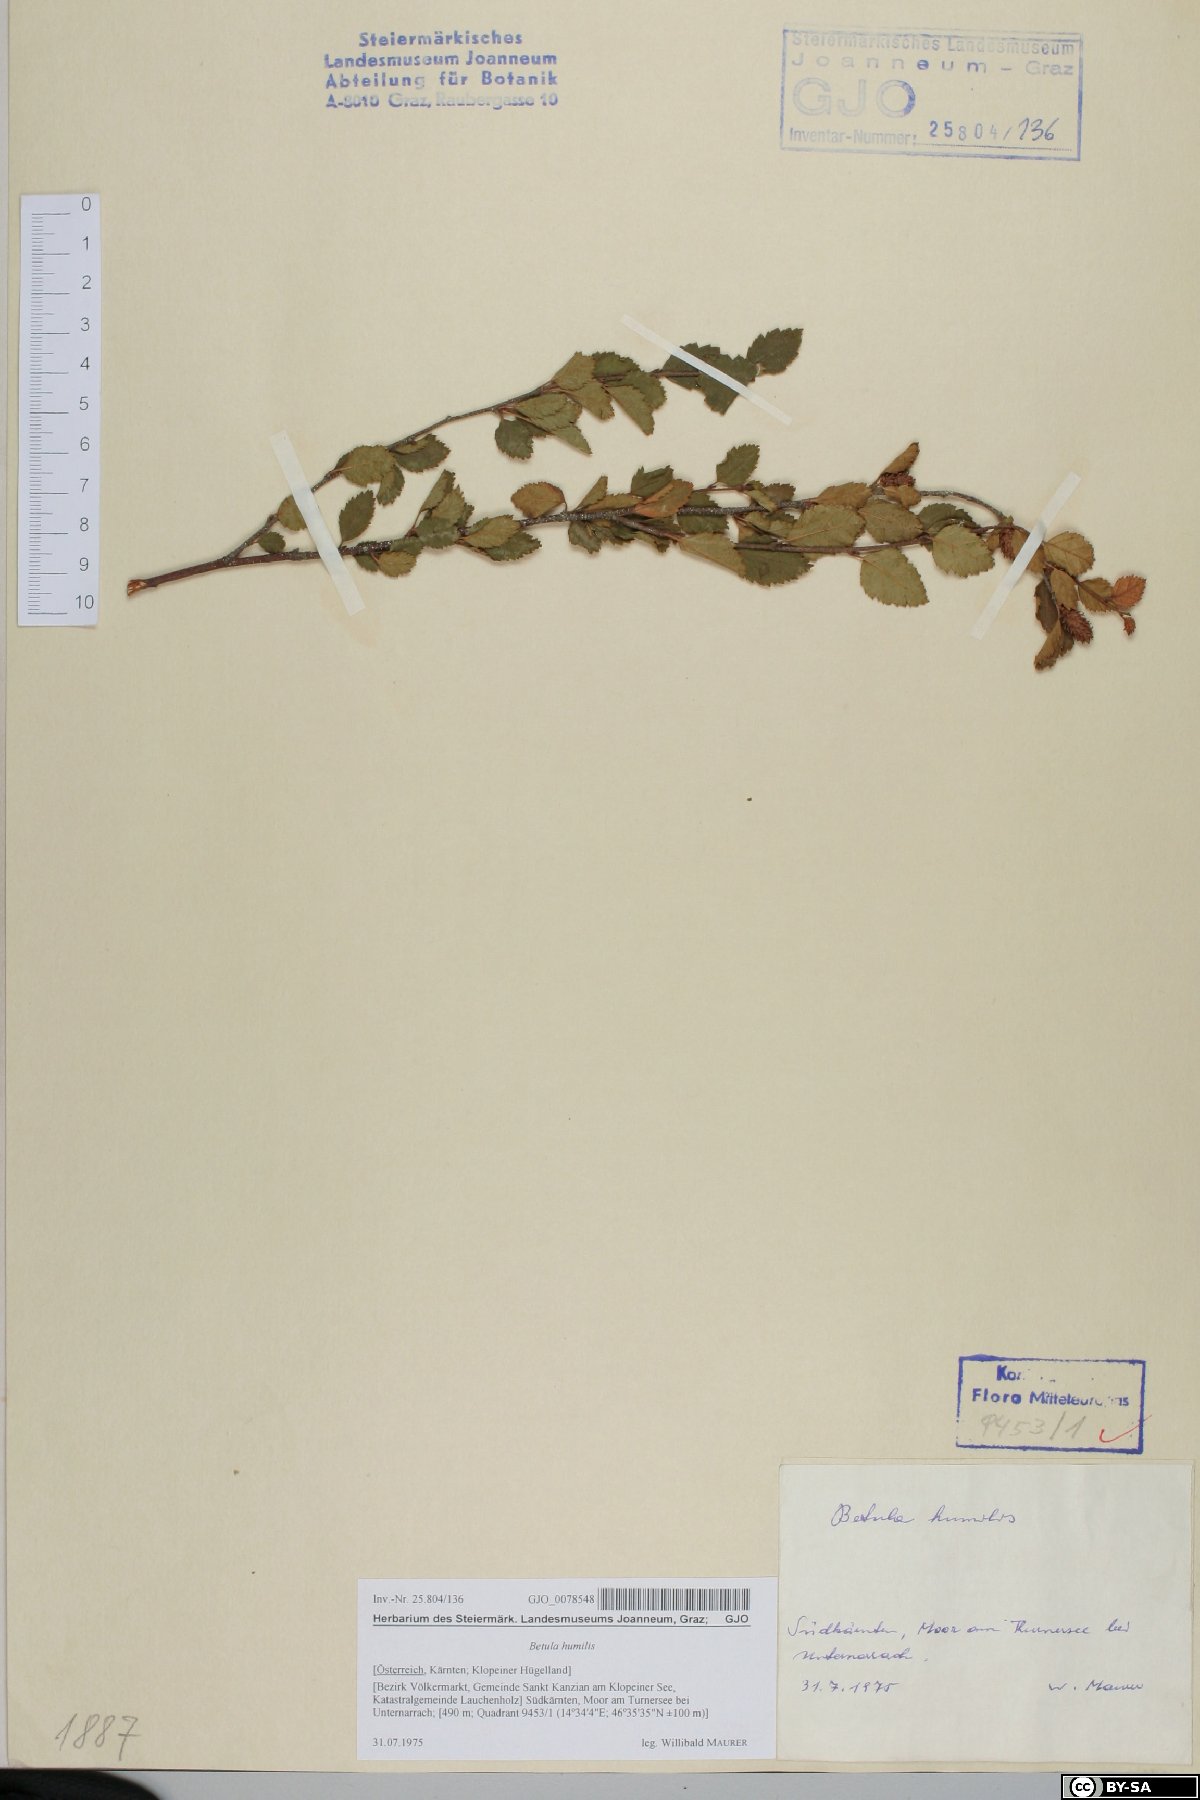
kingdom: Plantae
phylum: Tracheophyta
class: Magnoliopsida
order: Fagales
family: Betulaceae
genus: Betula
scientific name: Betula humilis
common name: Shrubby birch
